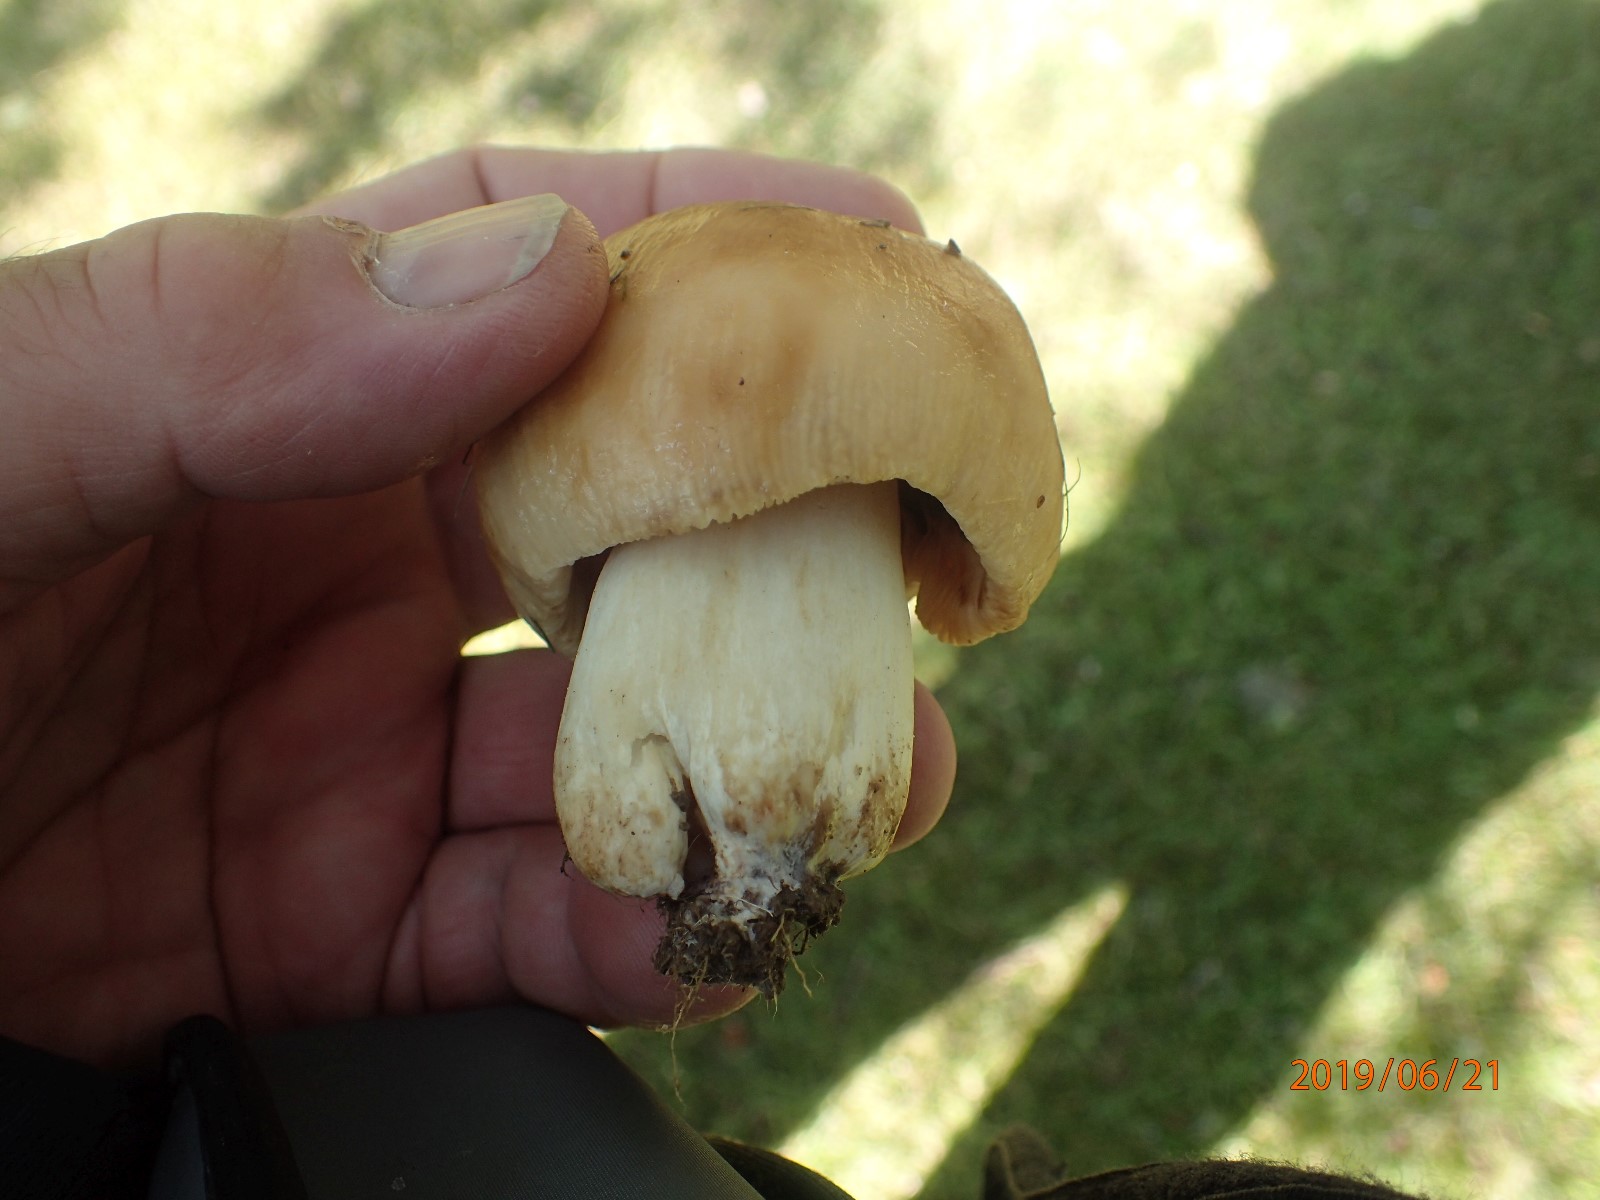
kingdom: Fungi
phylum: Basidiomycota
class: Agaricomycetes
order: Russulales
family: Russulaceae
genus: Russula
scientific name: Russula foetens
